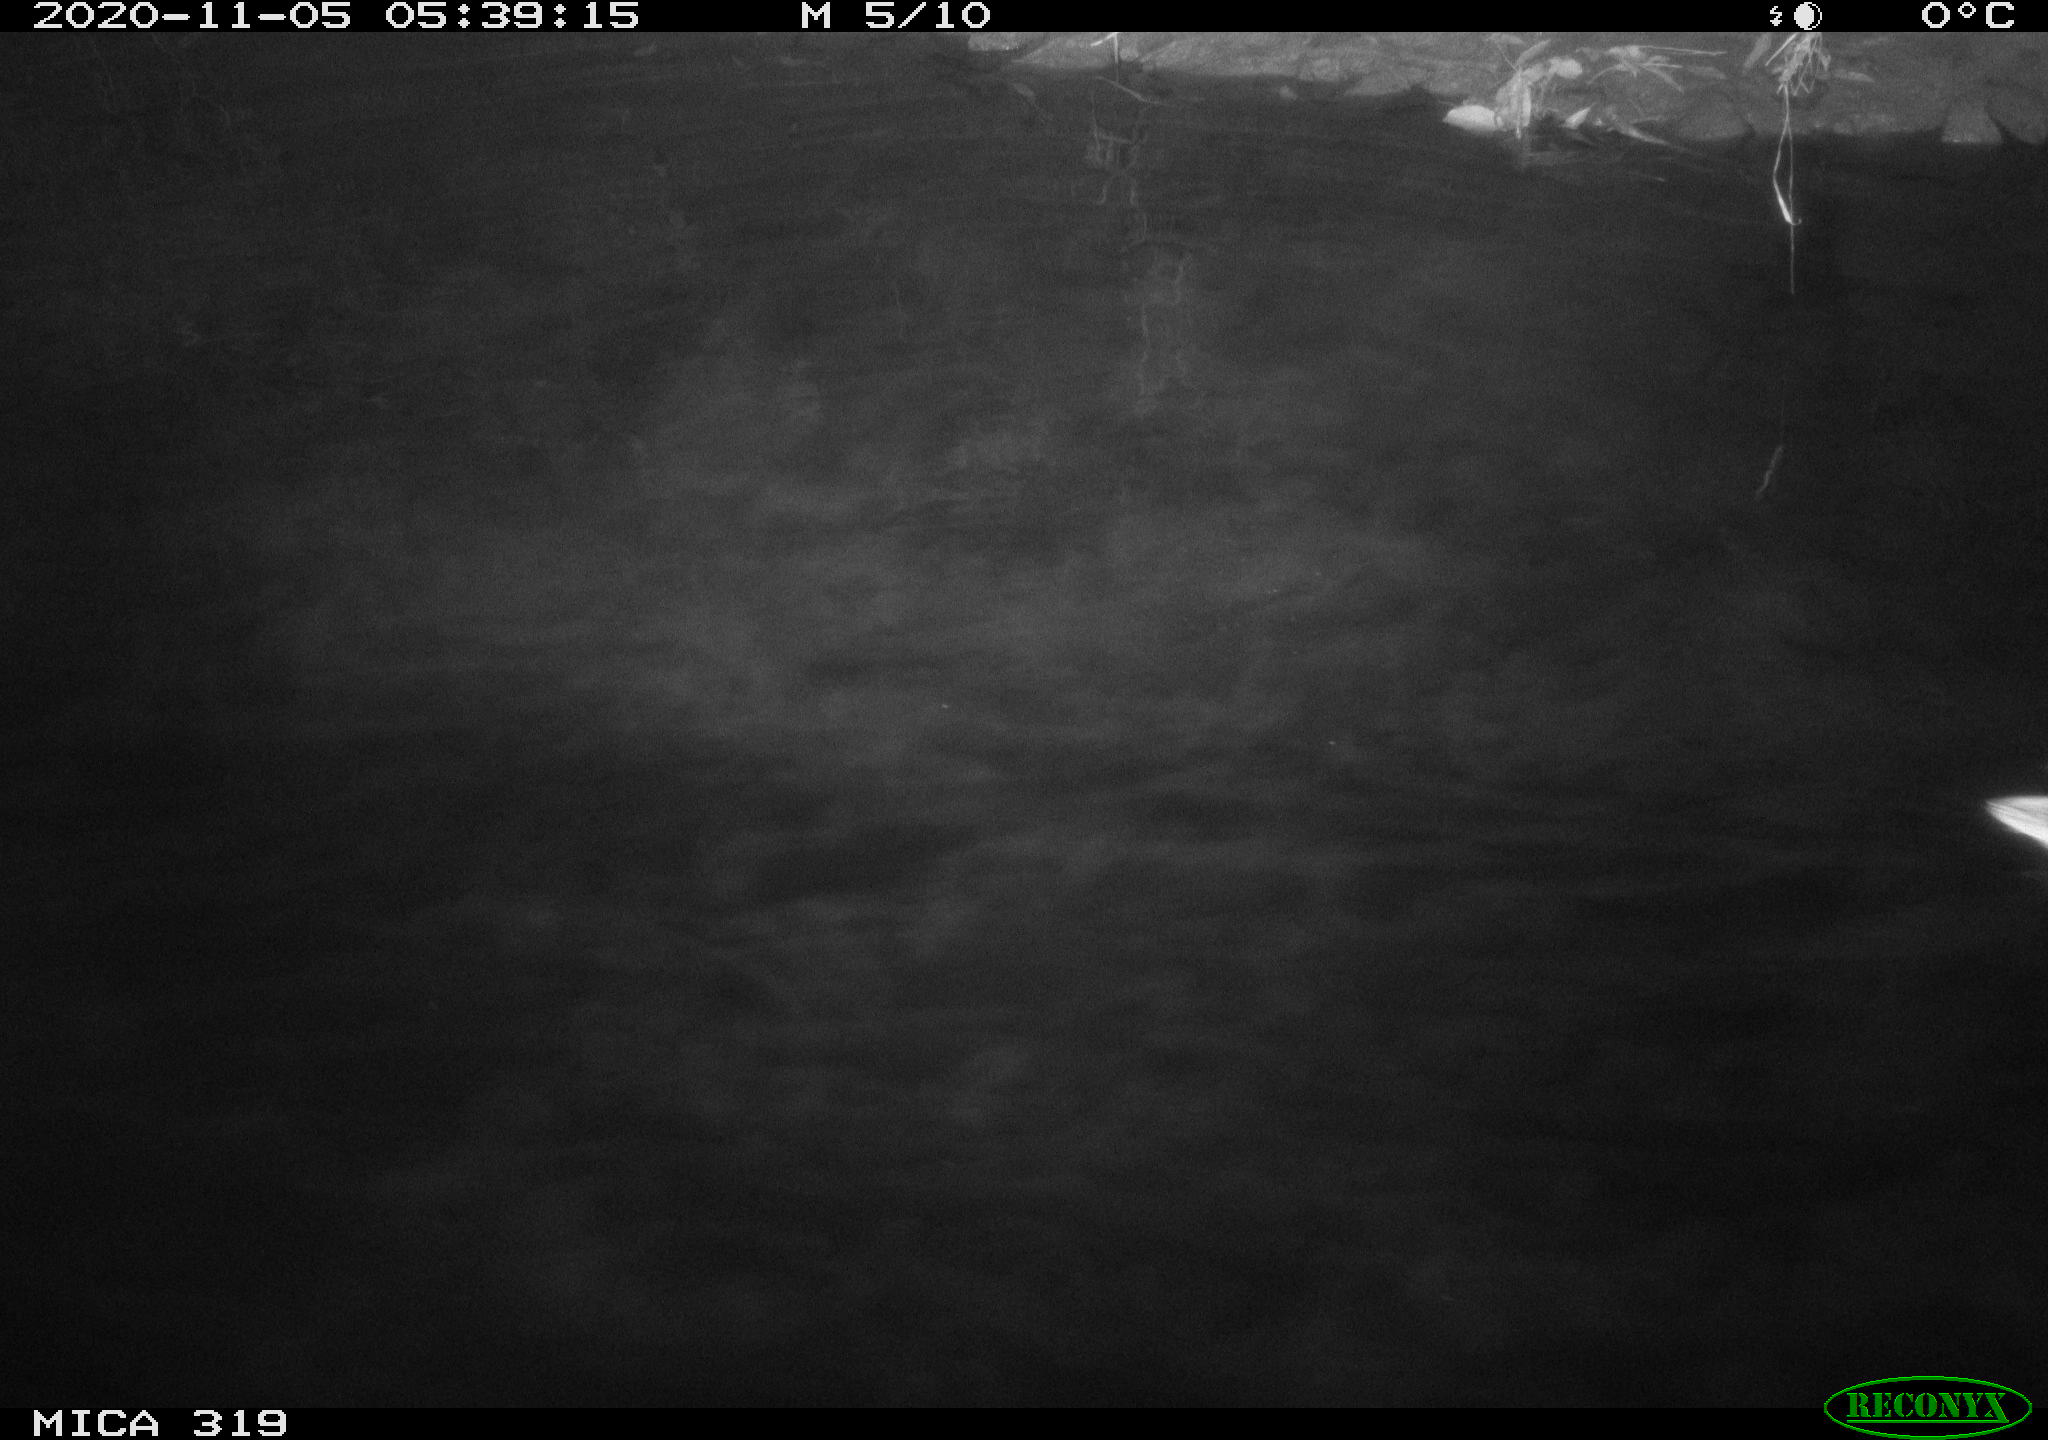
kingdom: Animalia
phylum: Chordata
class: Aves
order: Anseriformes
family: Anatidae
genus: Anas
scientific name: Anas platyrhynchos
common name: Mallard
